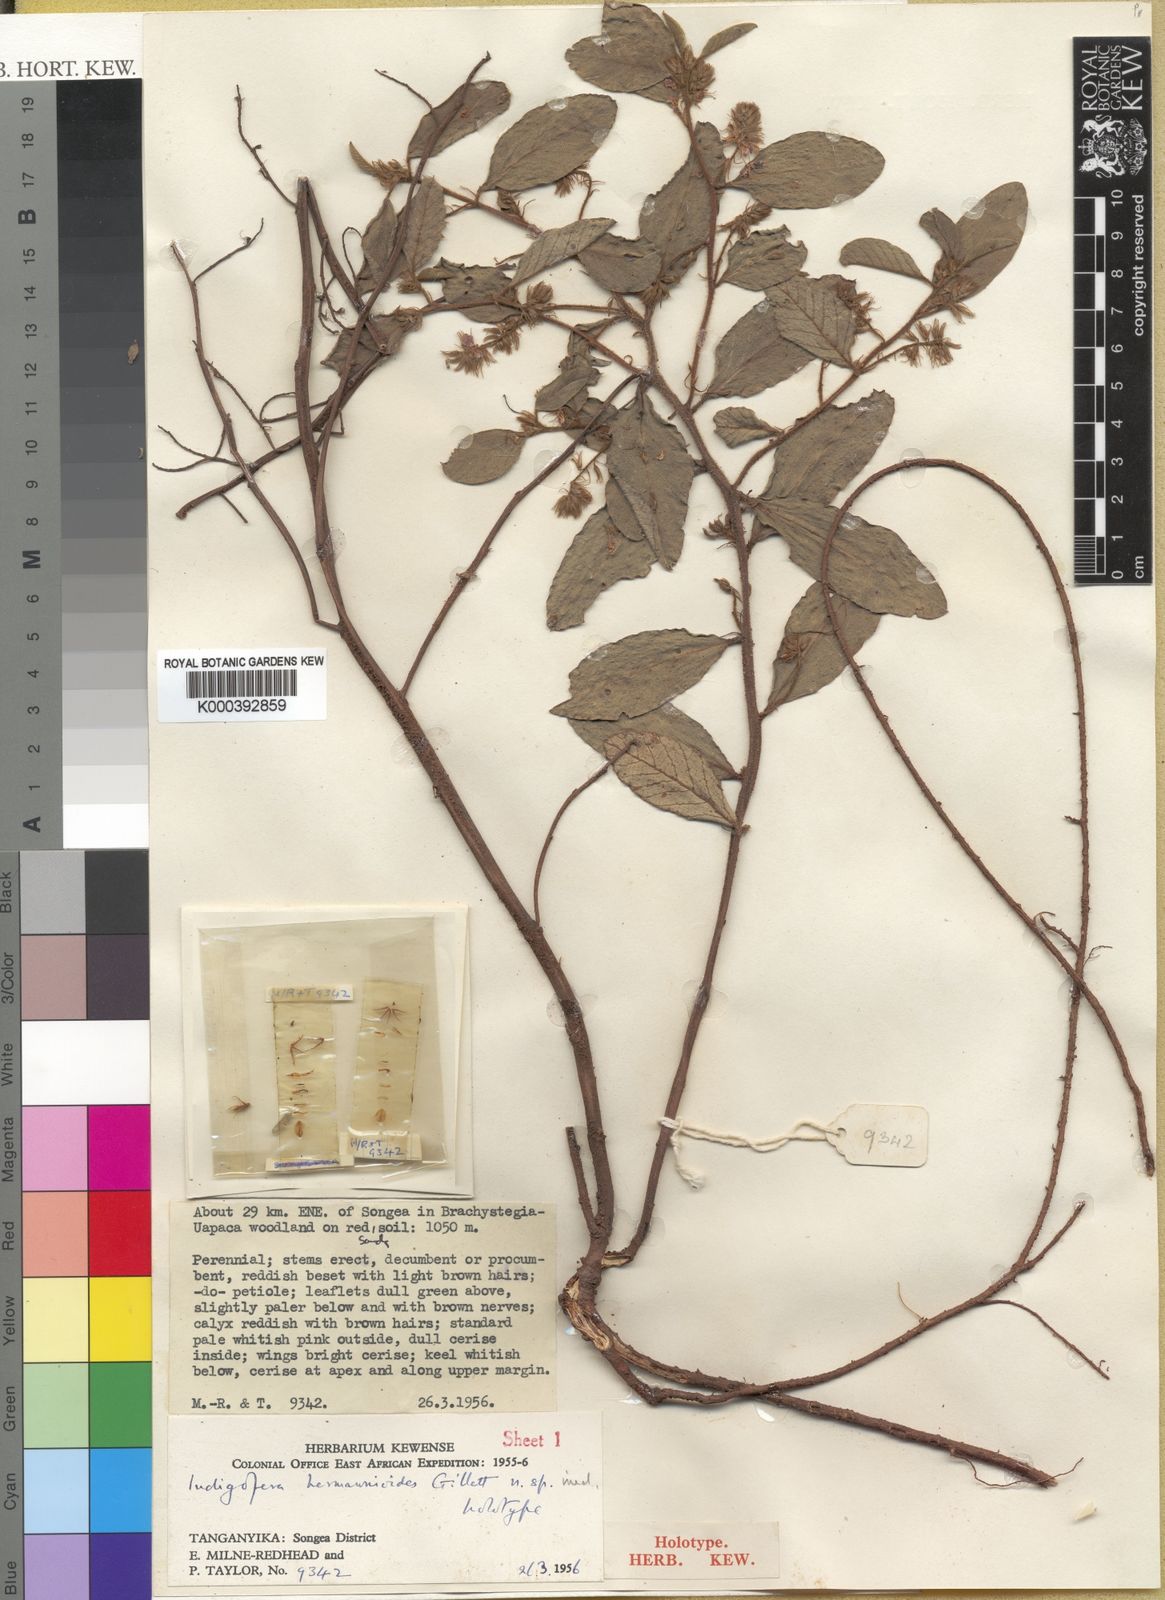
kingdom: Plantae
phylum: Tracheophyta
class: Magnoliopsida
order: Fabales
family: Fabaceae
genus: Indigofera
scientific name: Indigofera hermannioides
